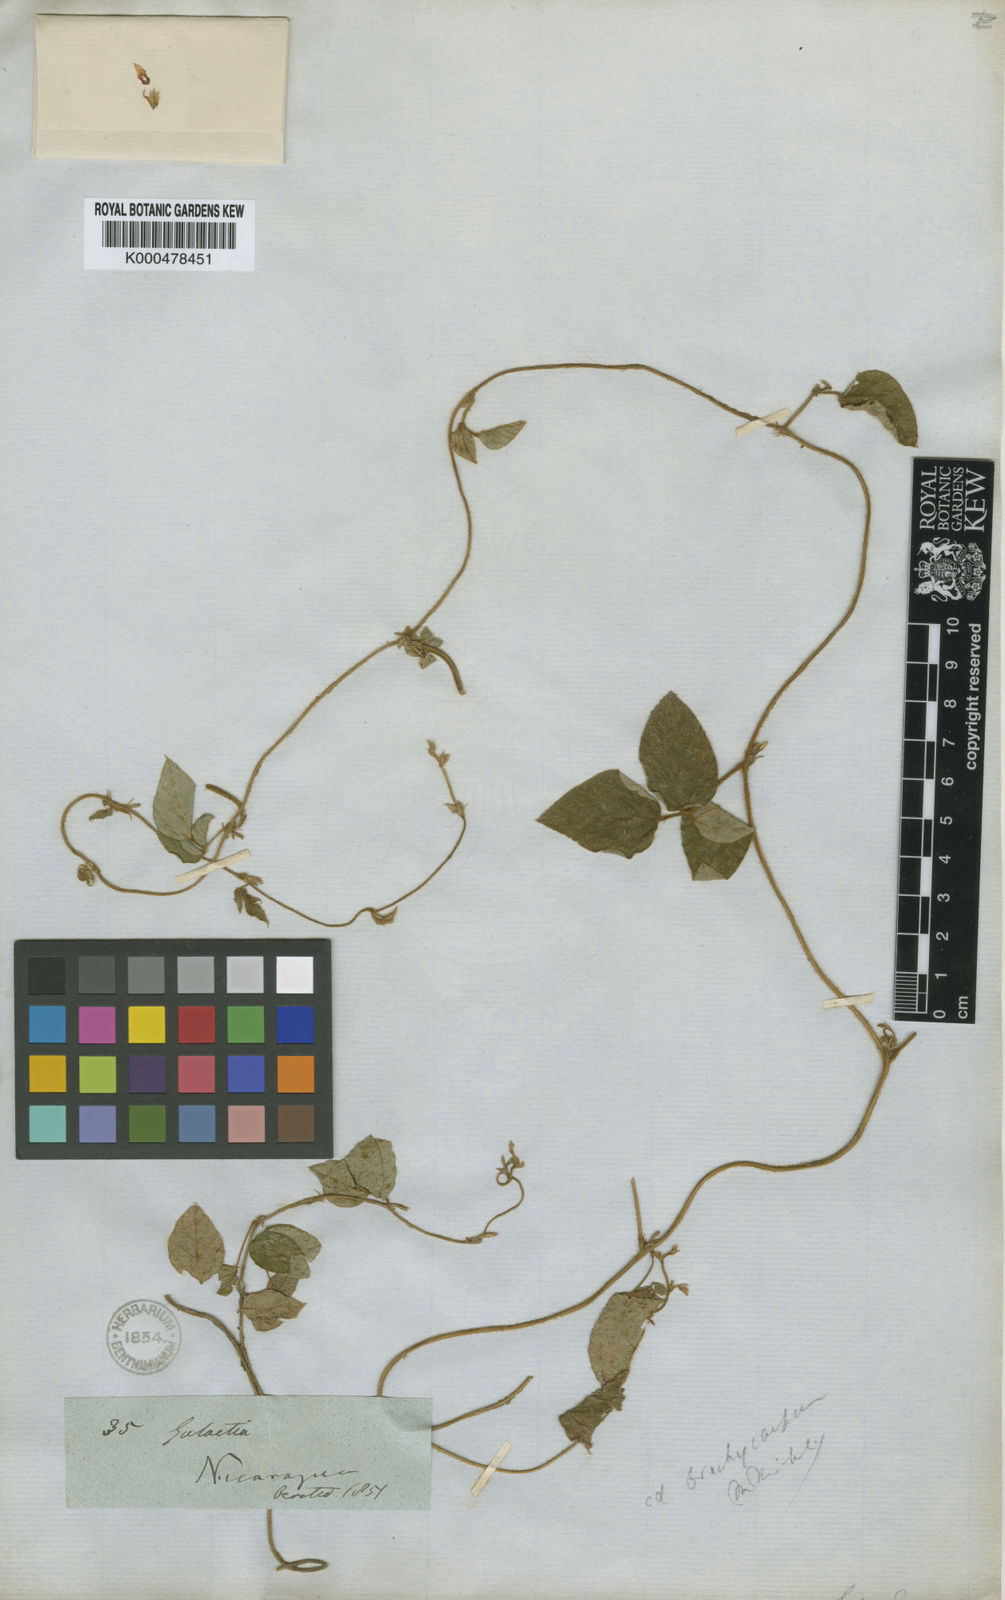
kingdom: Plantae
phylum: Tracheophyta
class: Magnoliopsida
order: Fabales
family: Fabaceae
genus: Calopogonium
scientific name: Calopogonium
